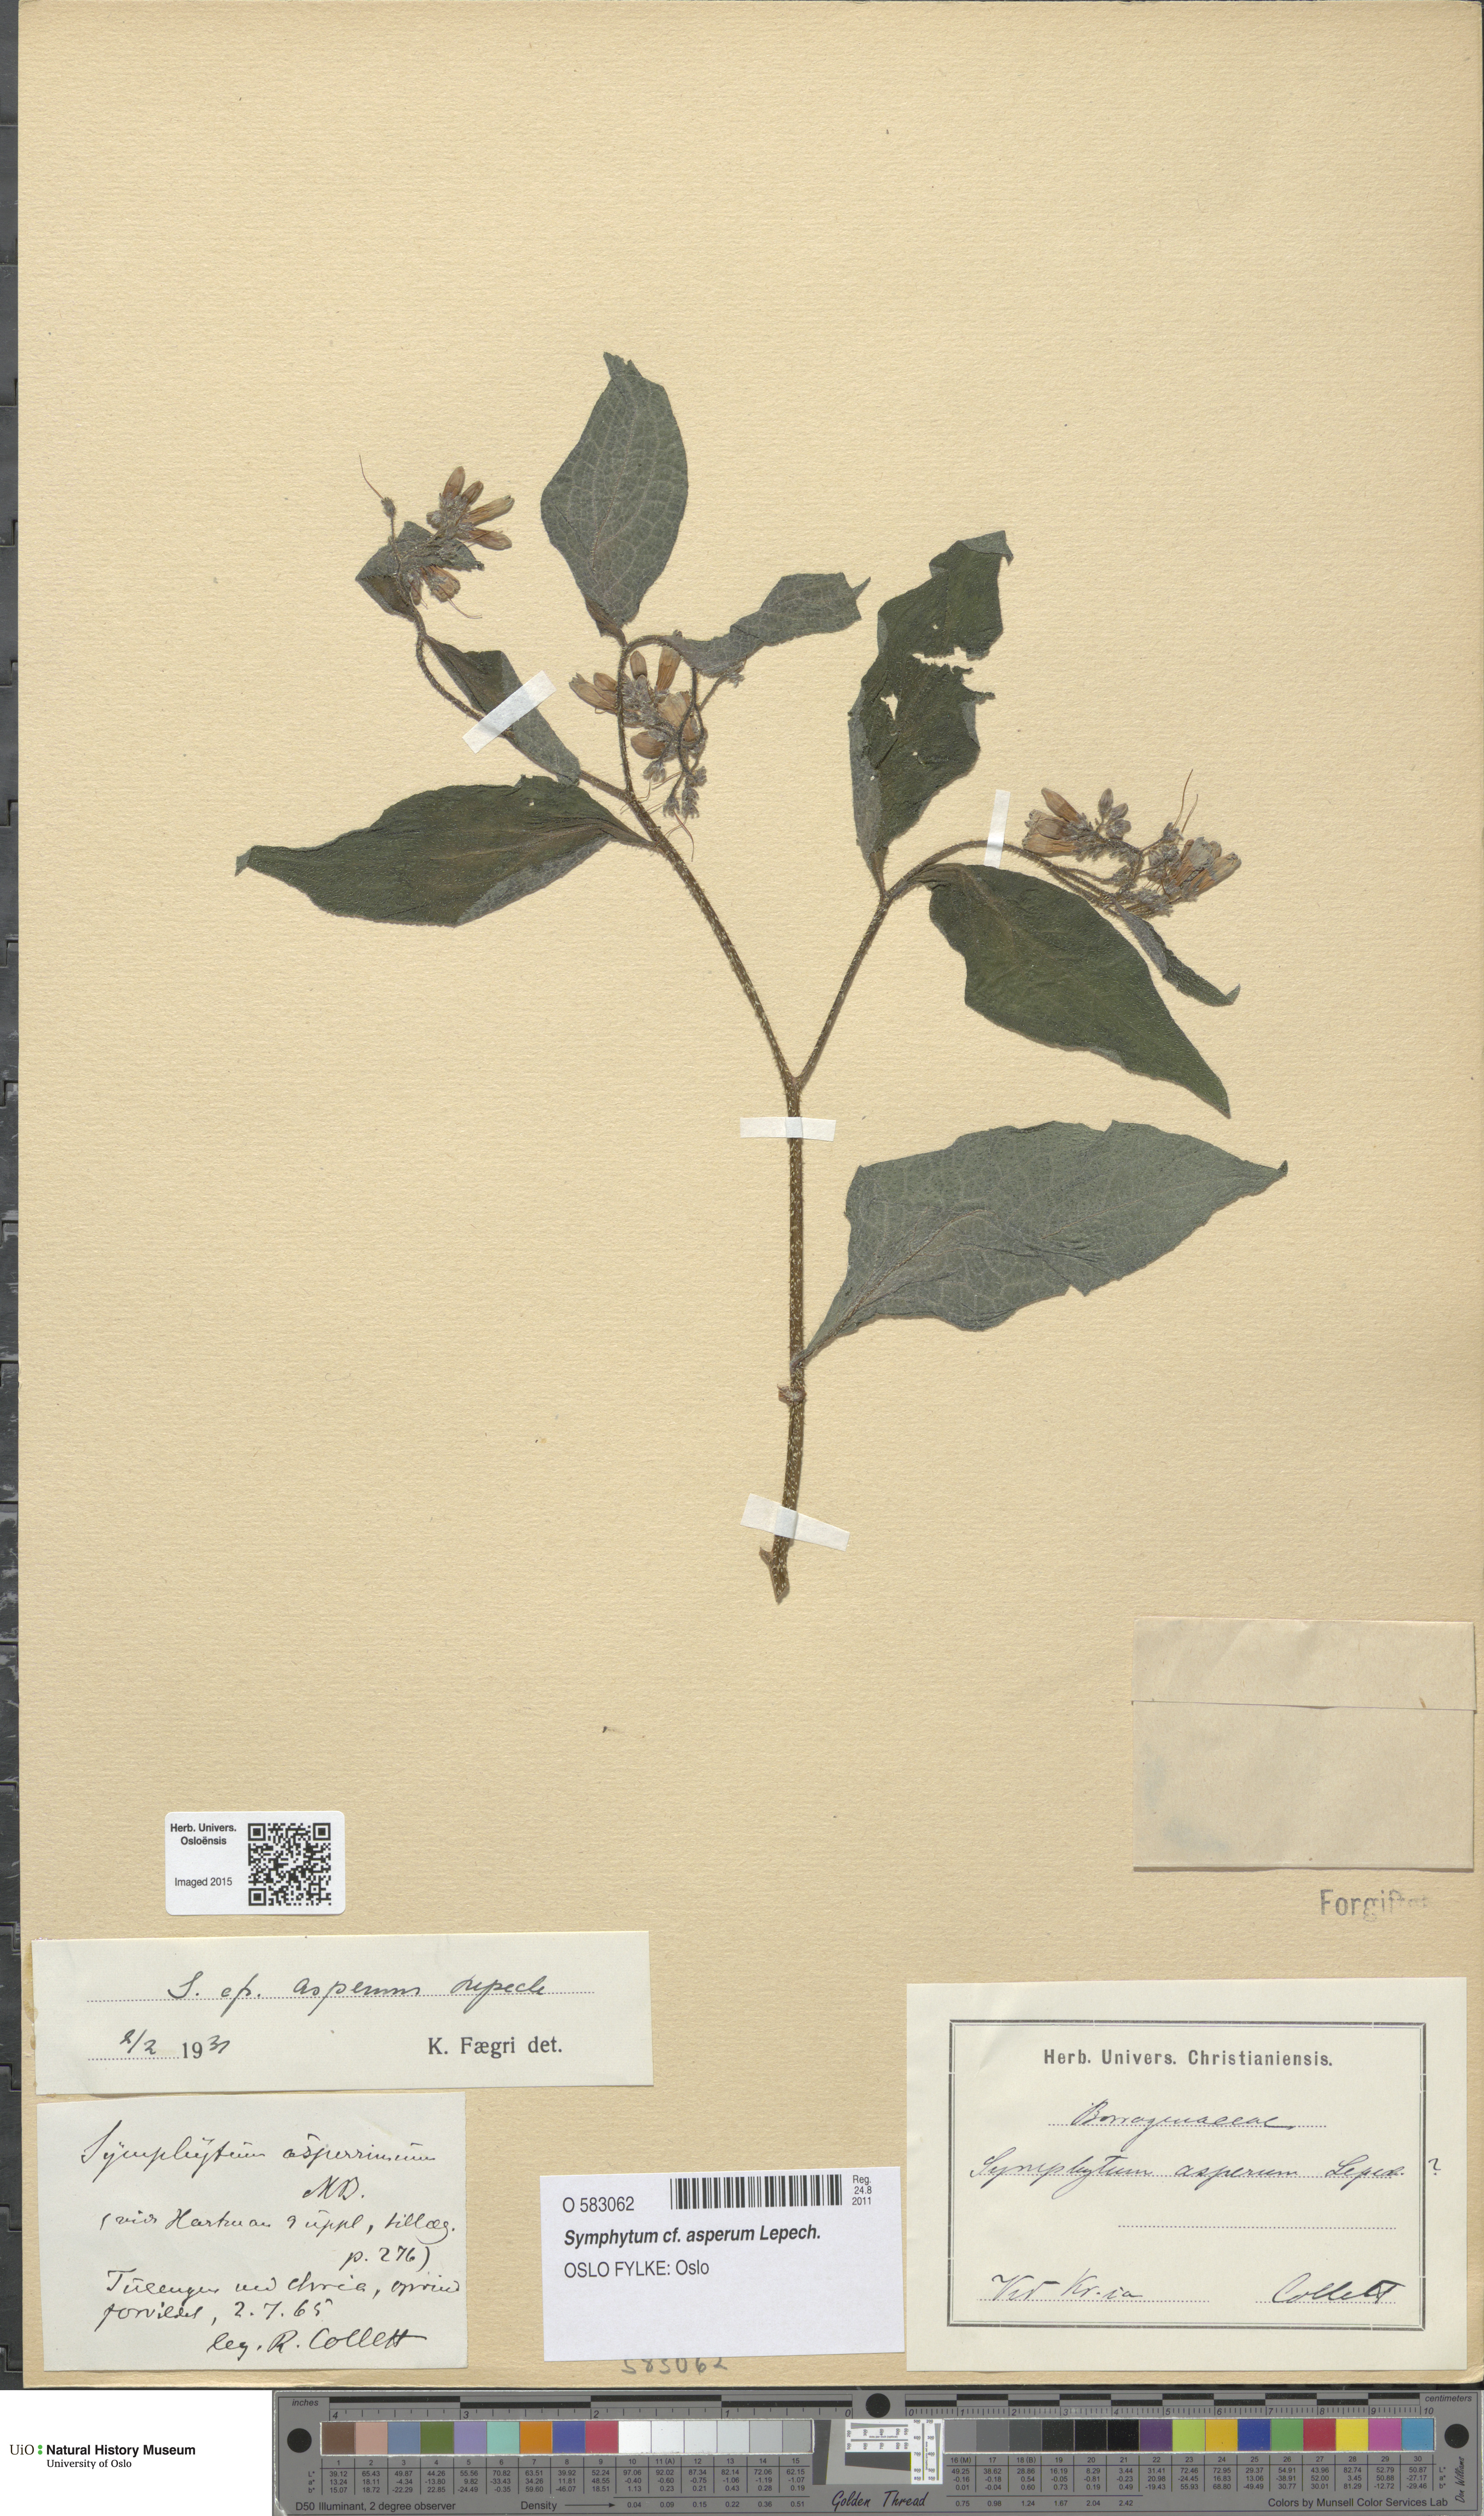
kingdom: Plantae
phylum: Tracheophyta
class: Magnoliopsida
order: Boraginales
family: Boraginaceae
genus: Symphytum
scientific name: Symphytum asperum
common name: Prickly comfrey
